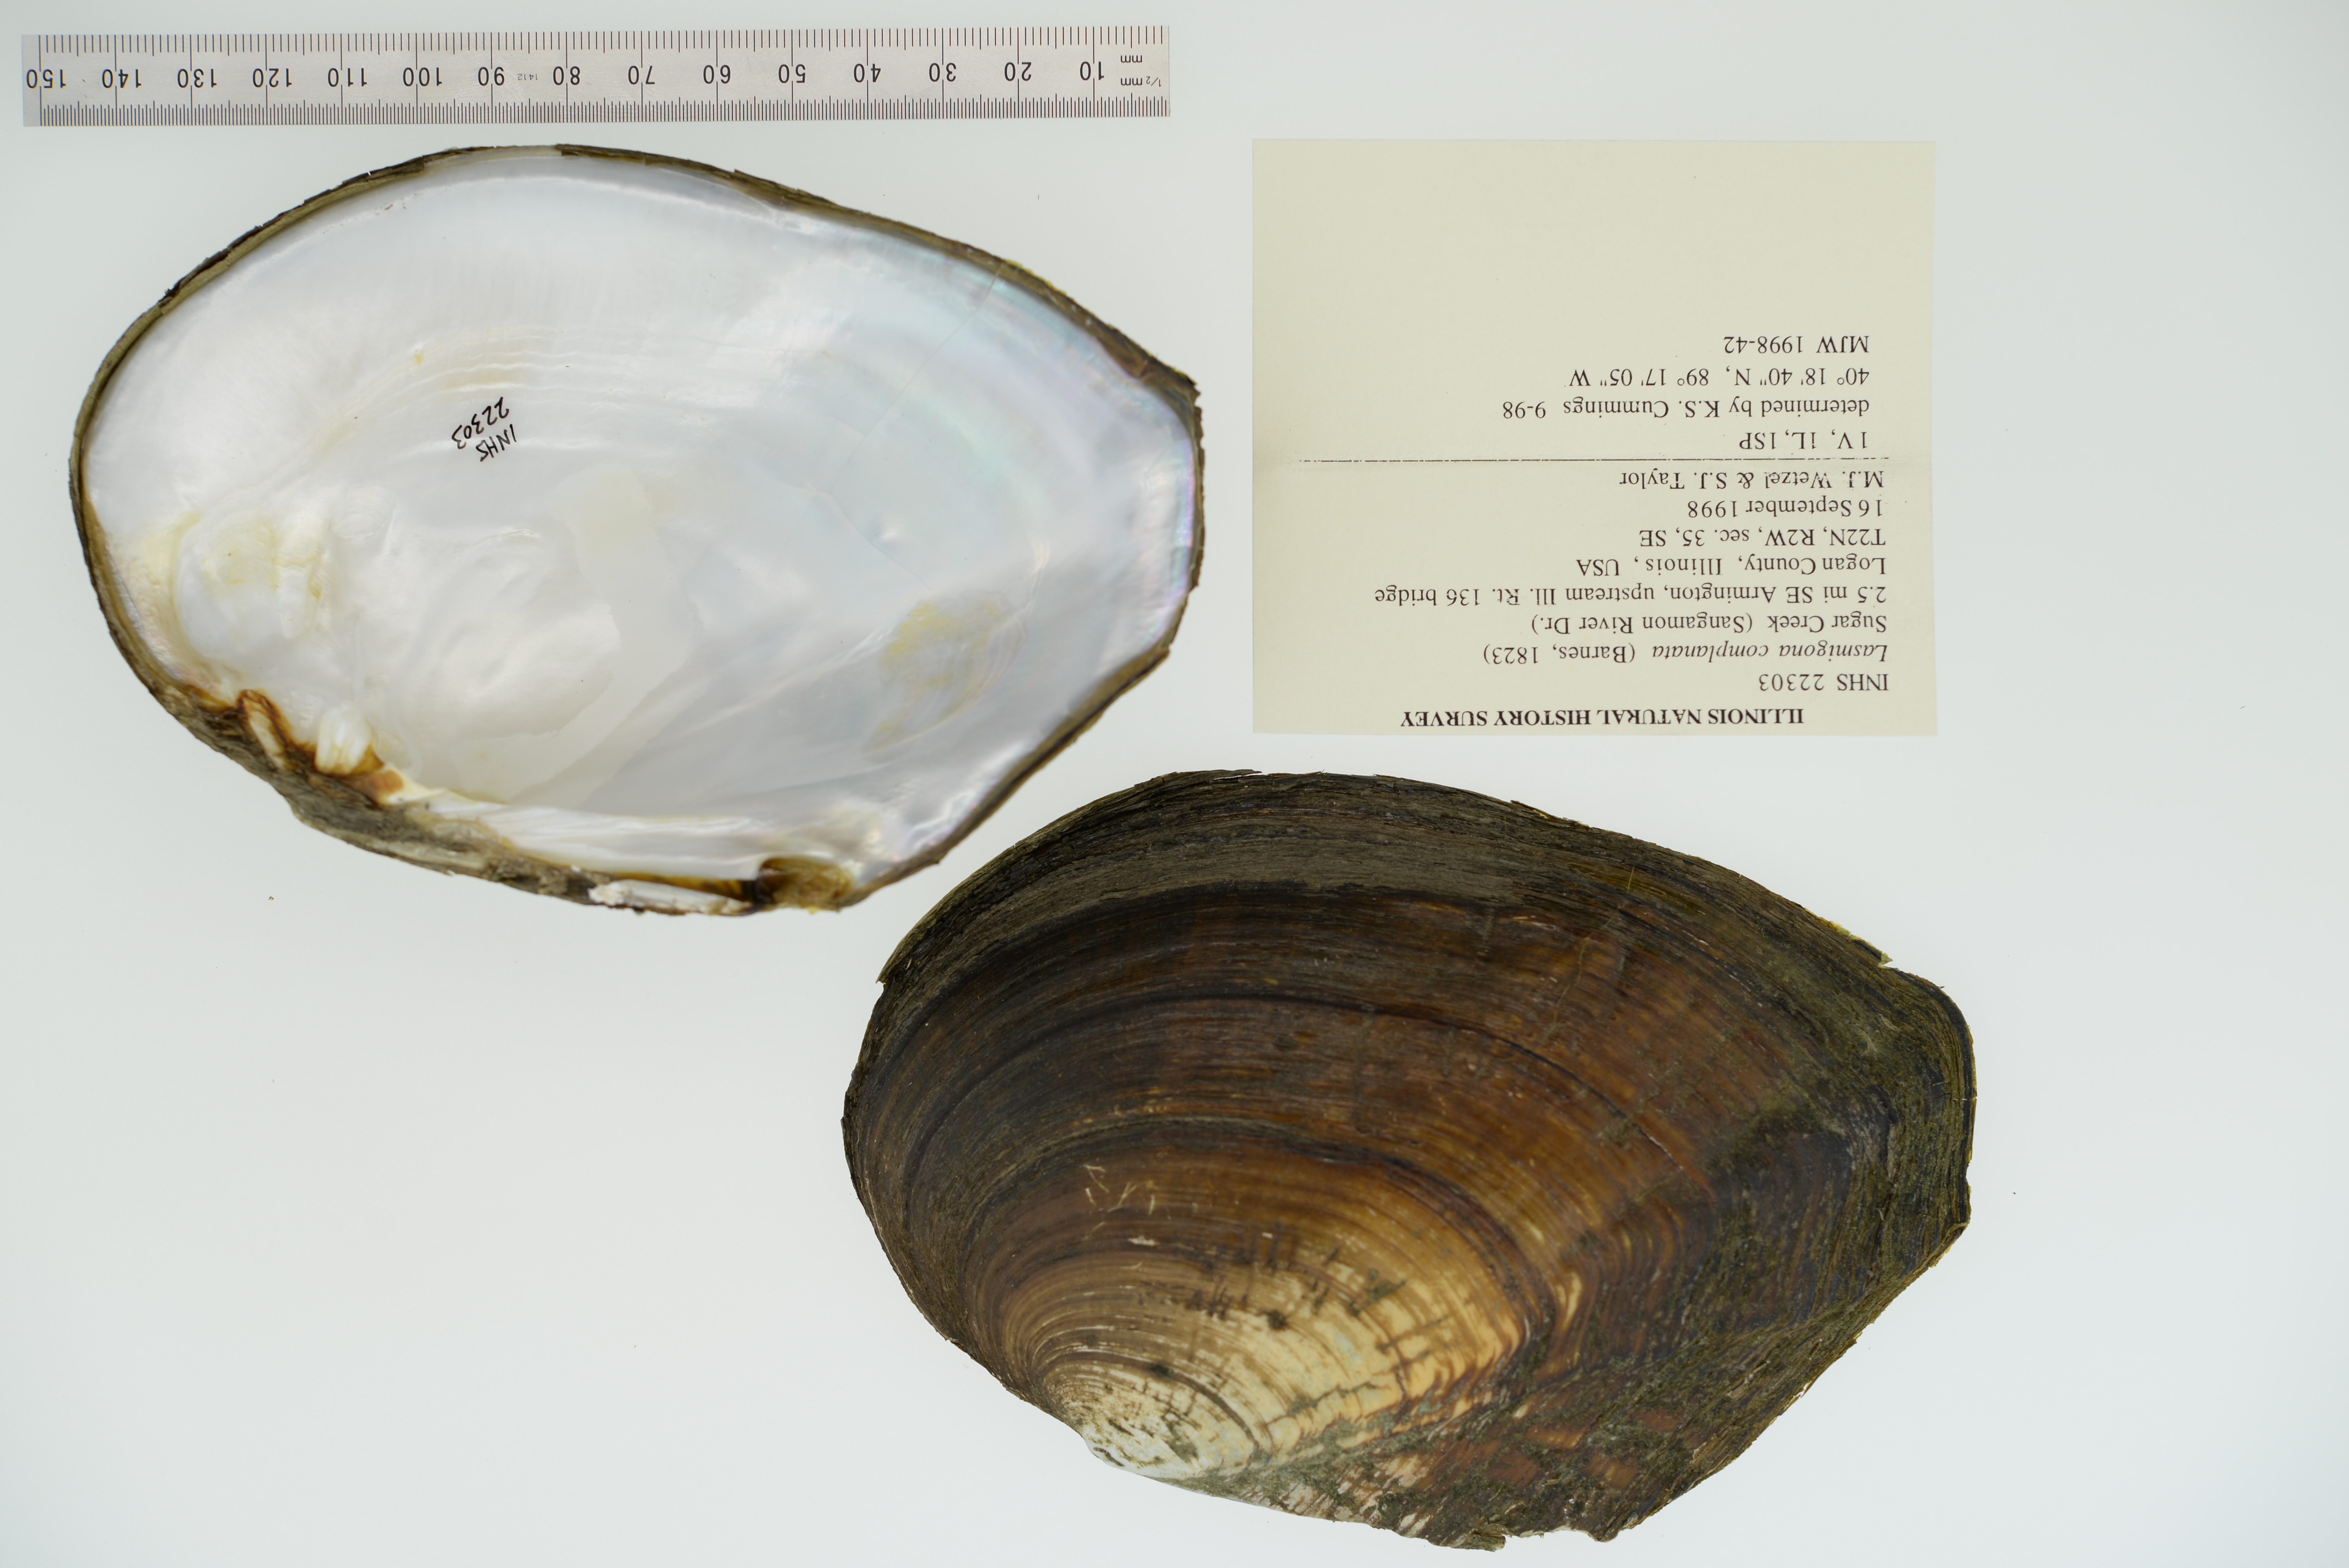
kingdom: Animalia
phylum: Mollusca
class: Bivalvia
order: Unionida
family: Unionidae
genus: Lasmigona
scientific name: Lasmigona complanata
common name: White heelsplitter
